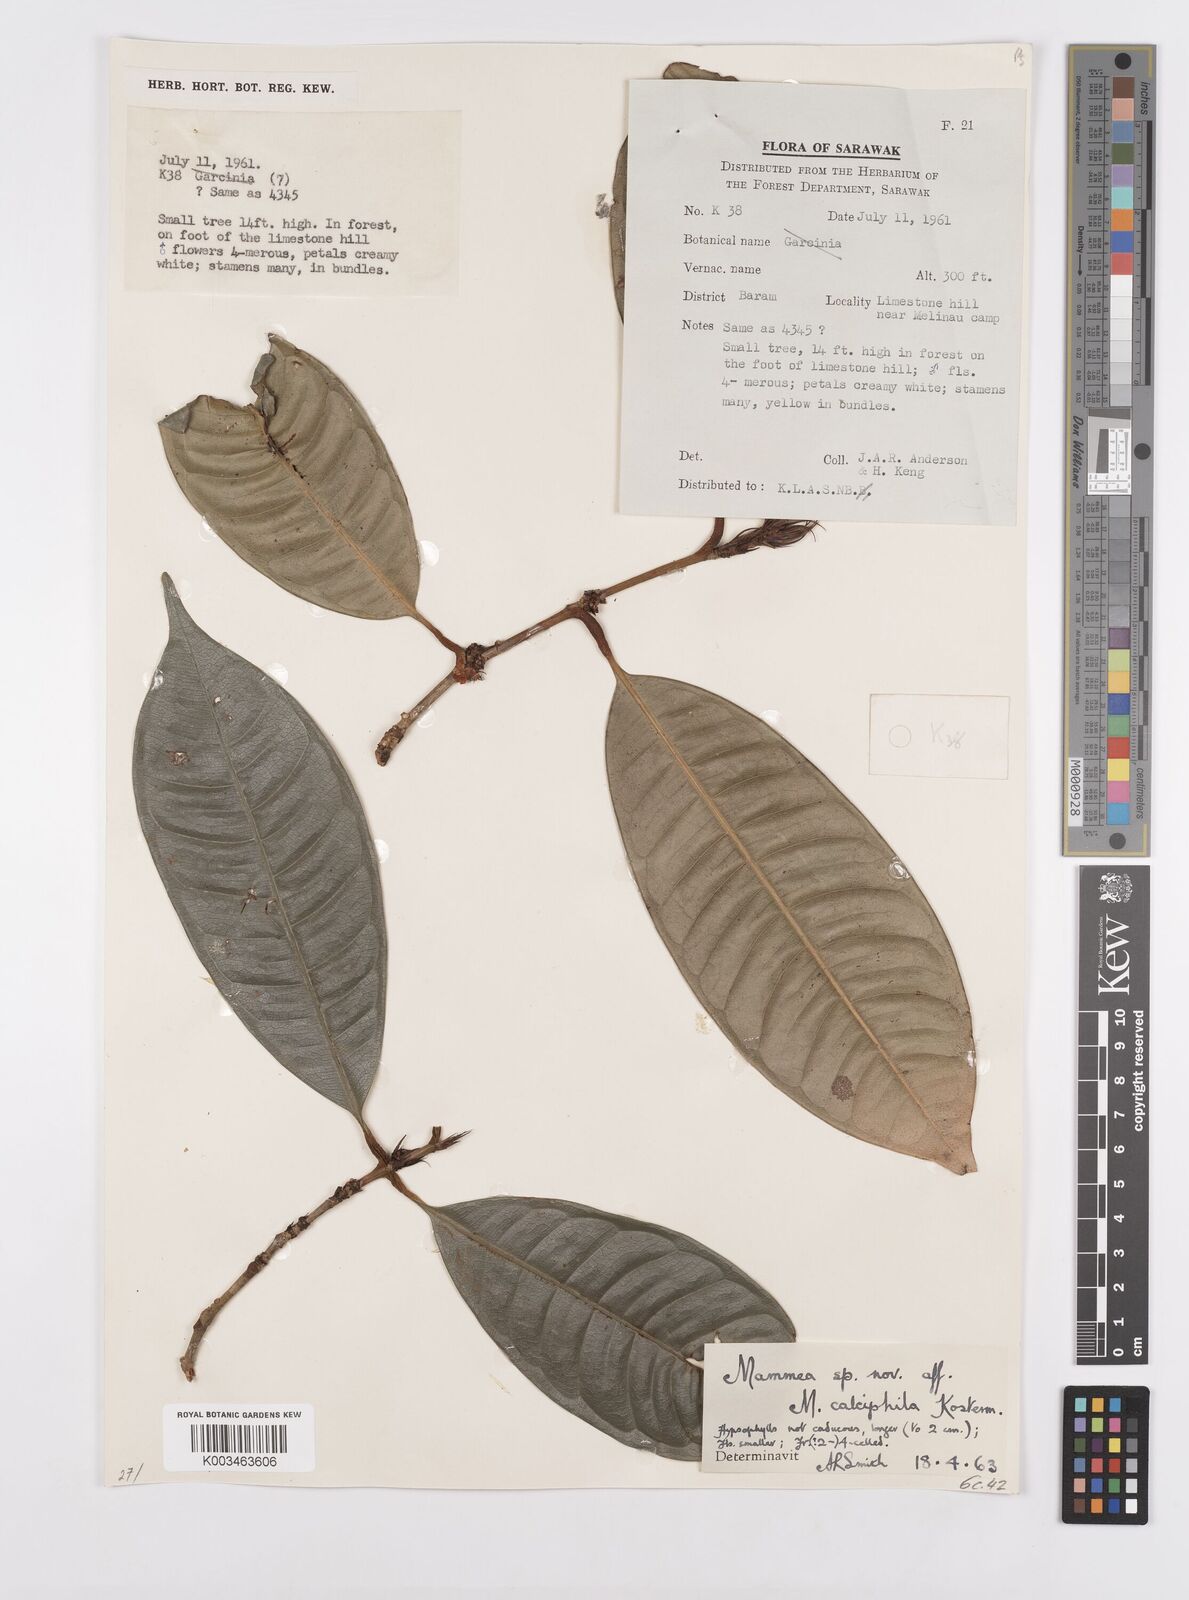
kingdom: Plantae
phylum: Tracheophyta
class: Magnoliopsida
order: Malpighiales
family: Calophyllaceae
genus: Mammea
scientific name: Mammea calciphila
